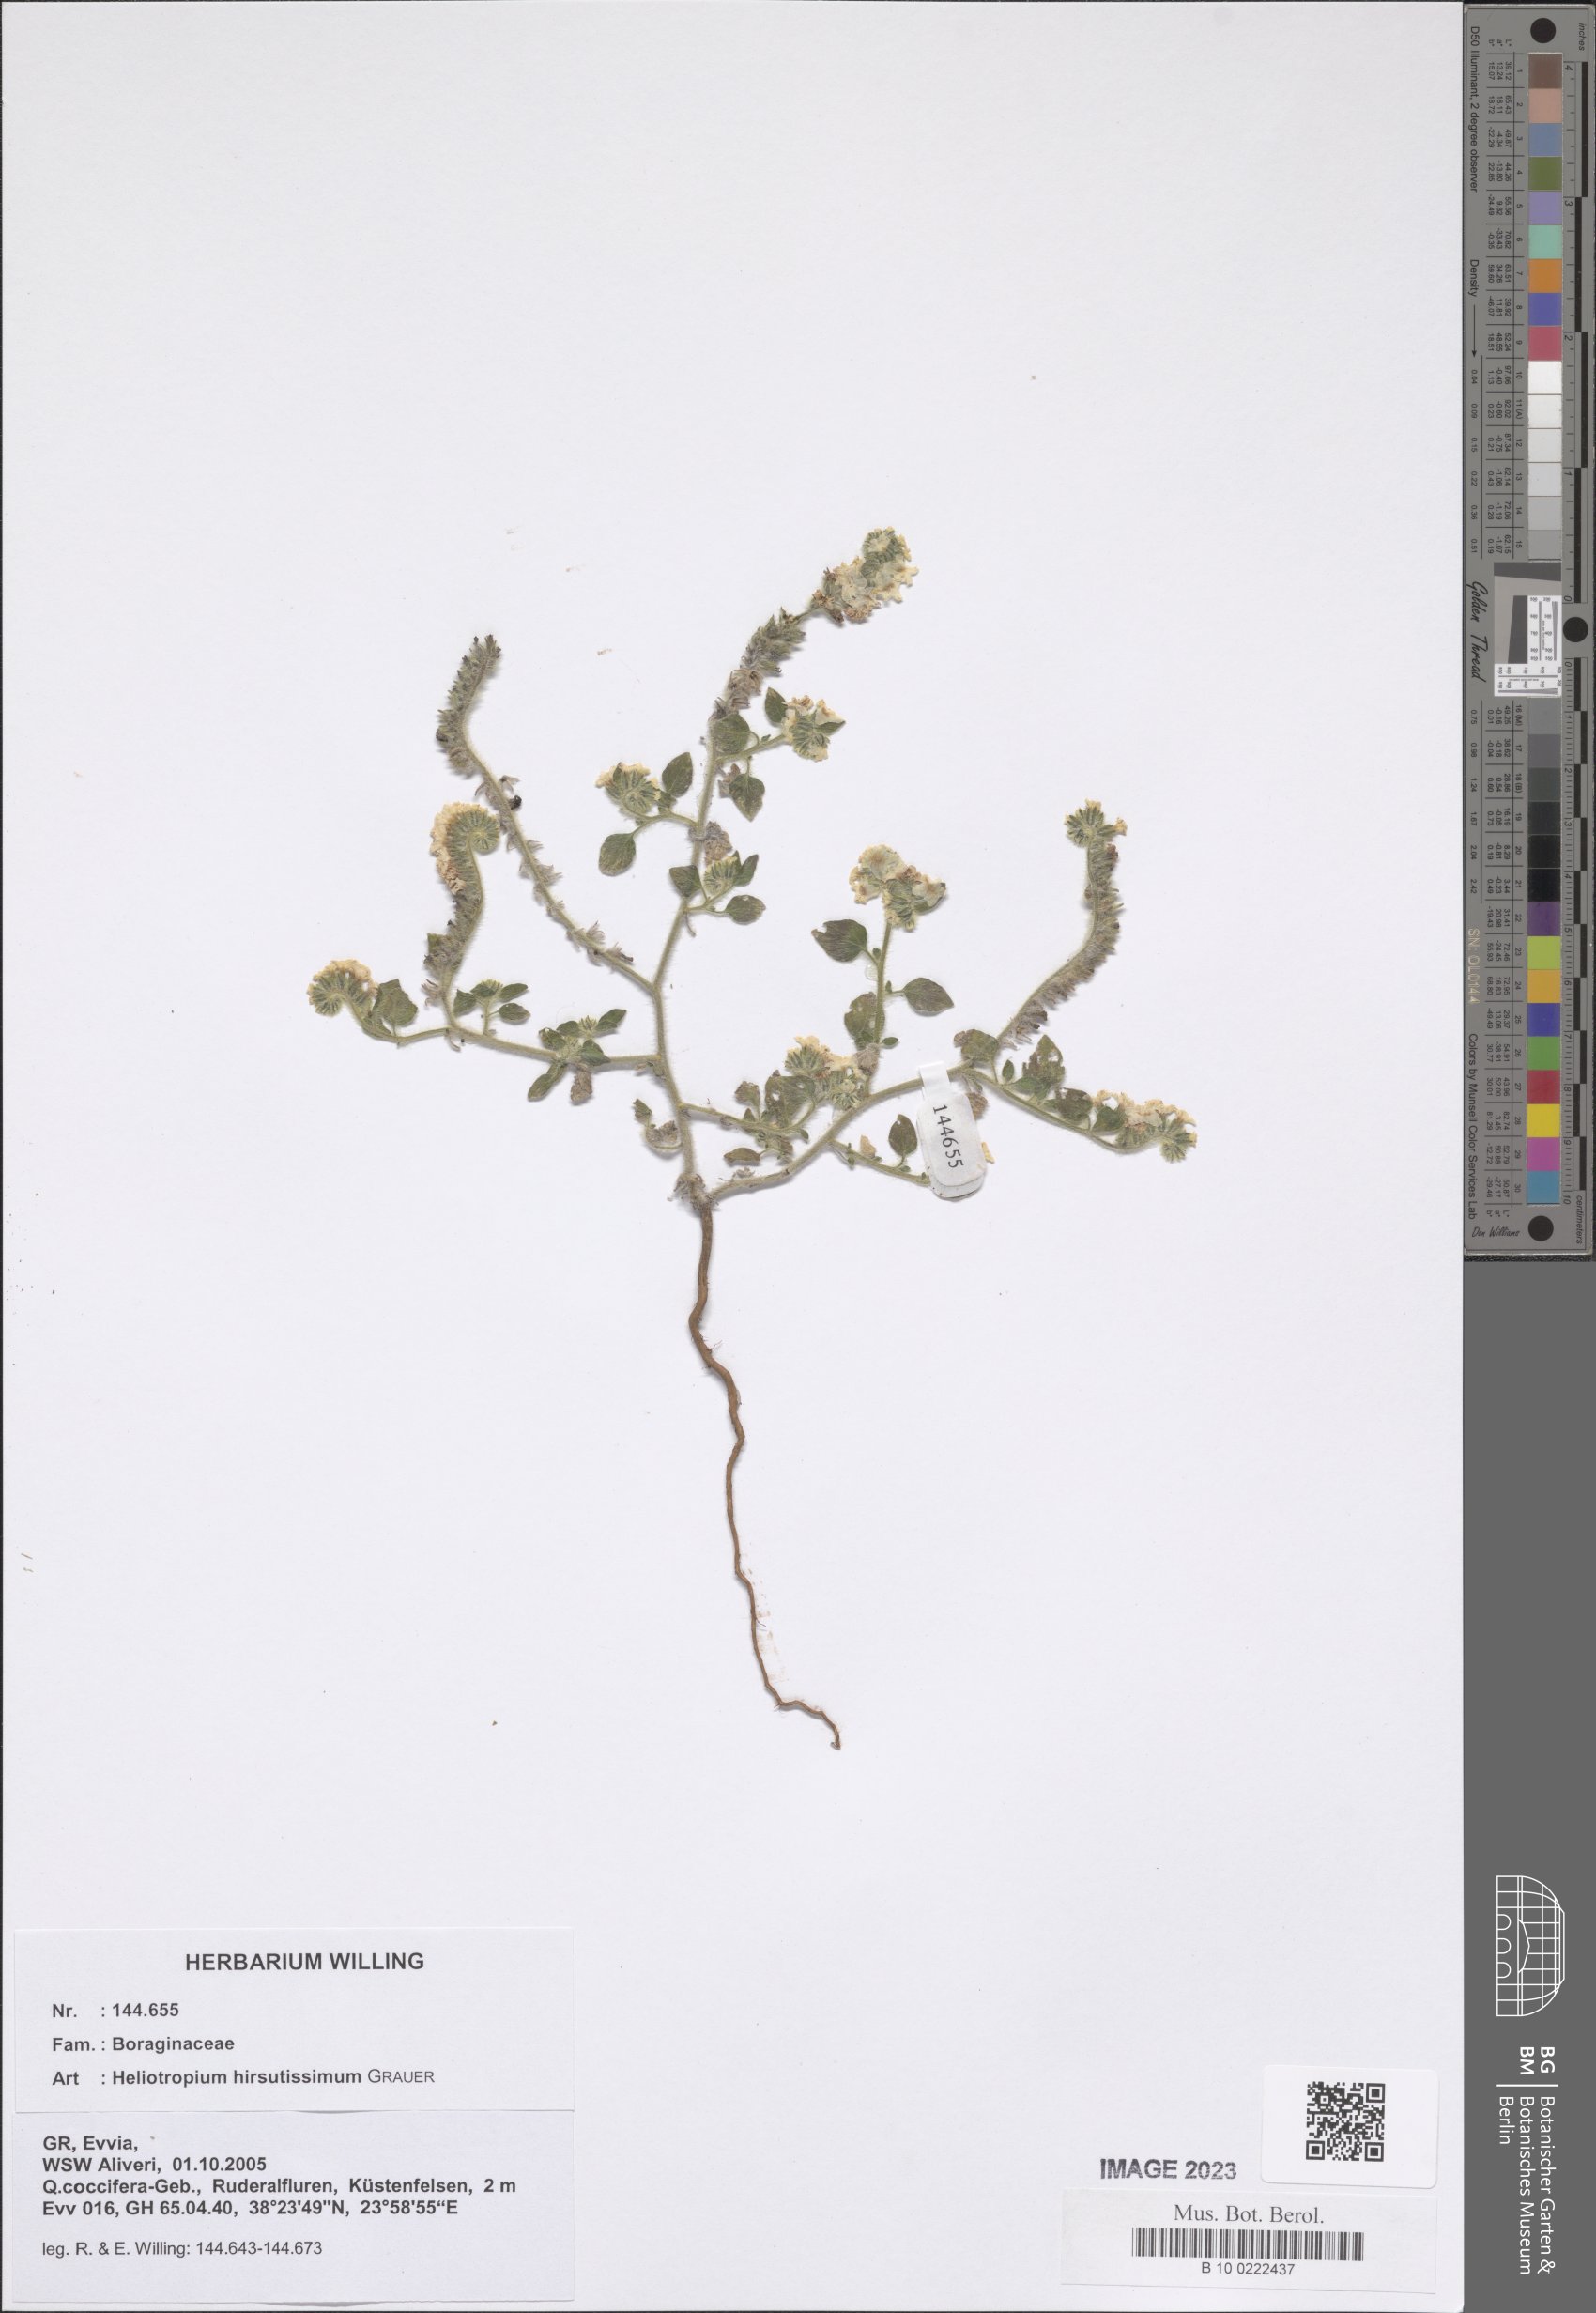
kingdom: Plantae
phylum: Tracheophyta
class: Magnoliopsida
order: Boraginales
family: Heliotropiaceae
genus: Heliotropium
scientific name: Heliotropium hirsutissimum
